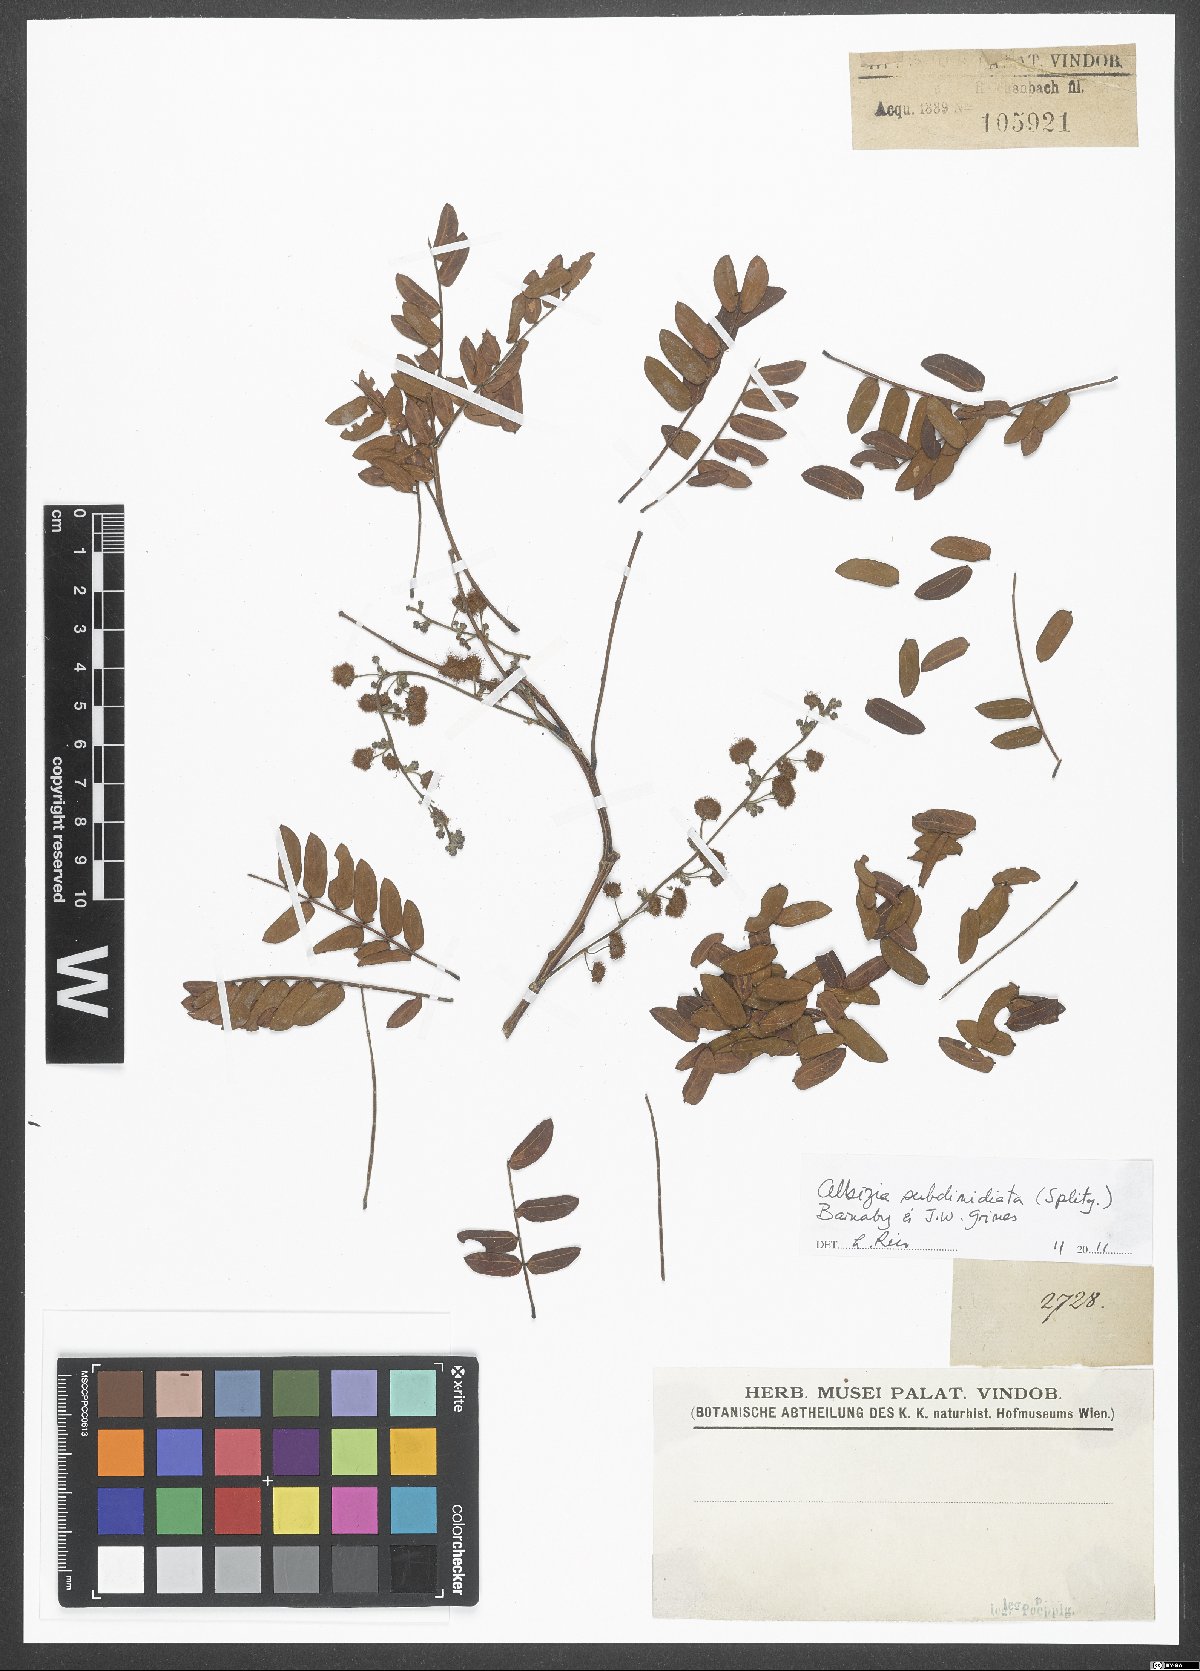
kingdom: Plantae
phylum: Tracheophyta
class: Magnoliopsida
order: Fabales
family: Fabaceae
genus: Albizia
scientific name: Albizia subdimidiata
